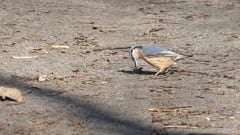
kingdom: Animalia
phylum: Chordata
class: Aves
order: Passeriformes
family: Sittidae
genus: Sitta
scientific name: Sitta europaea
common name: Eurasian nuthatch
